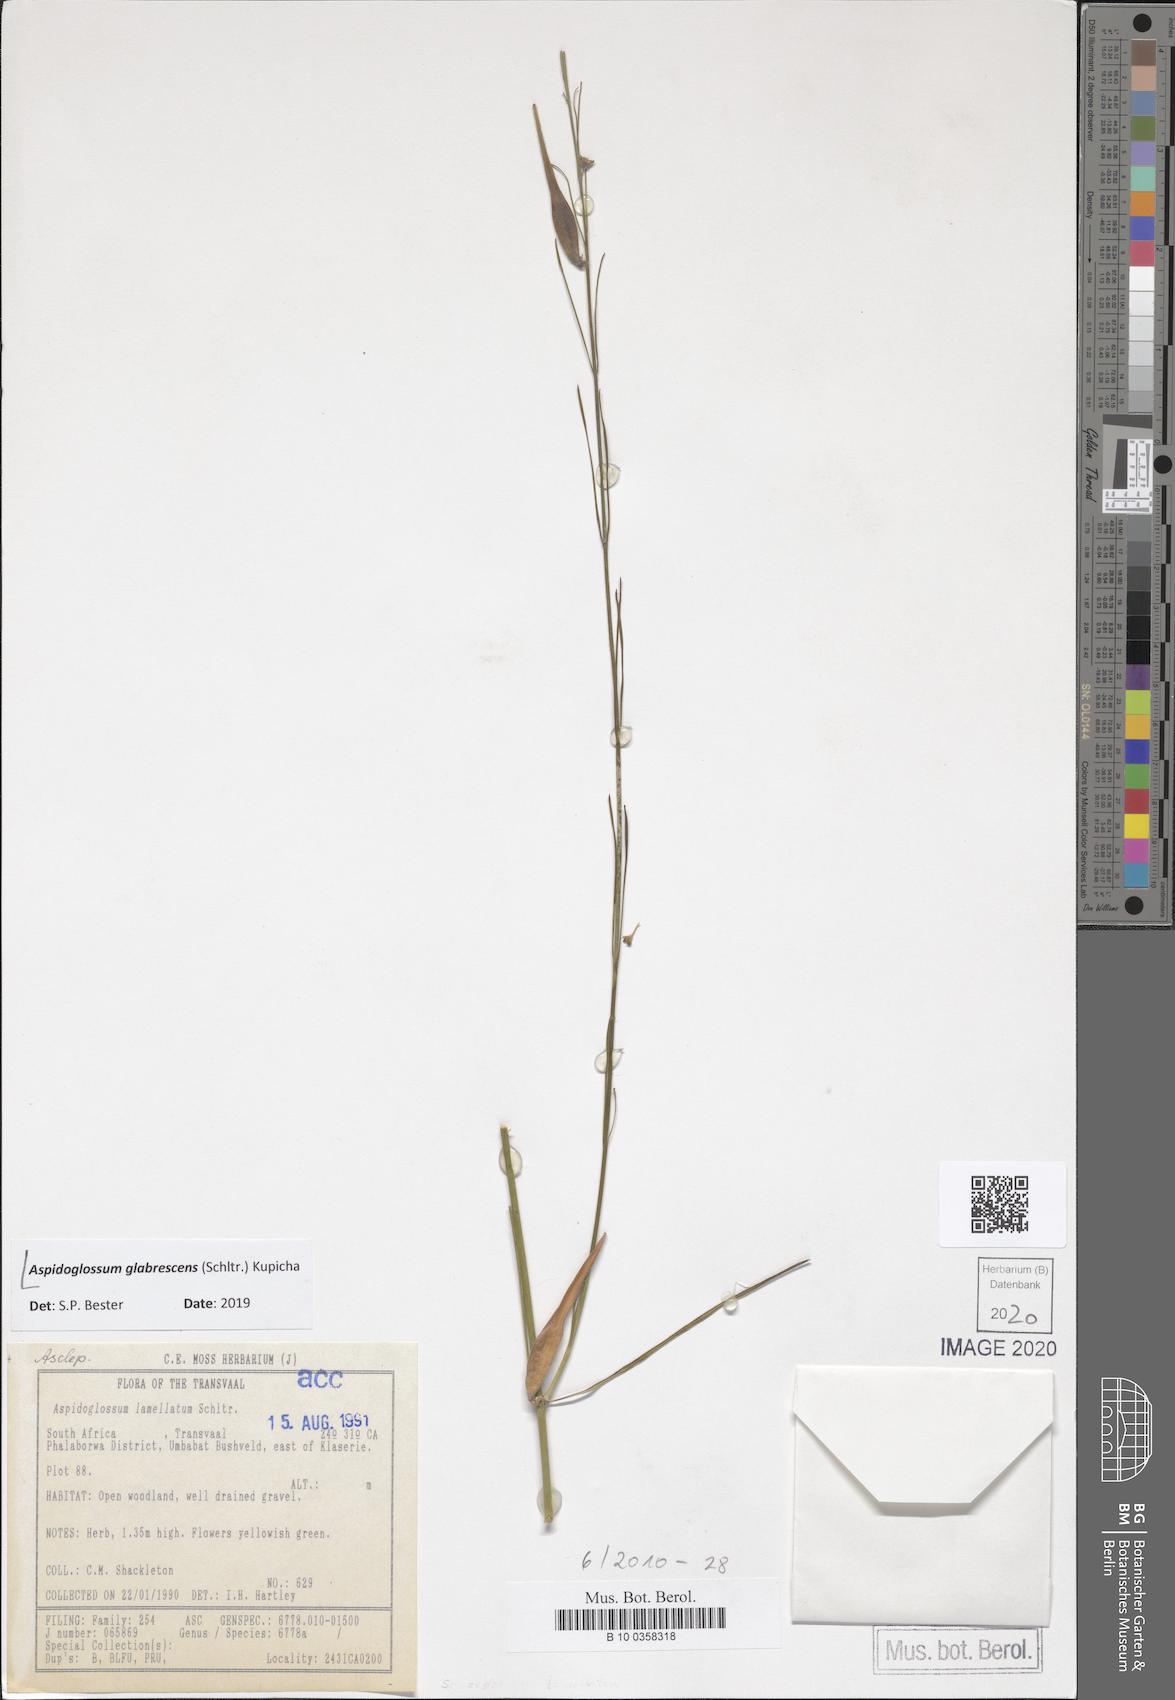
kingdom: Plantae
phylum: Tracheophyta
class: Magnoliopsida
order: Gentianales
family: Apocynaceae
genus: Aspidoglossum
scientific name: Aspidoglossum glabrescens
